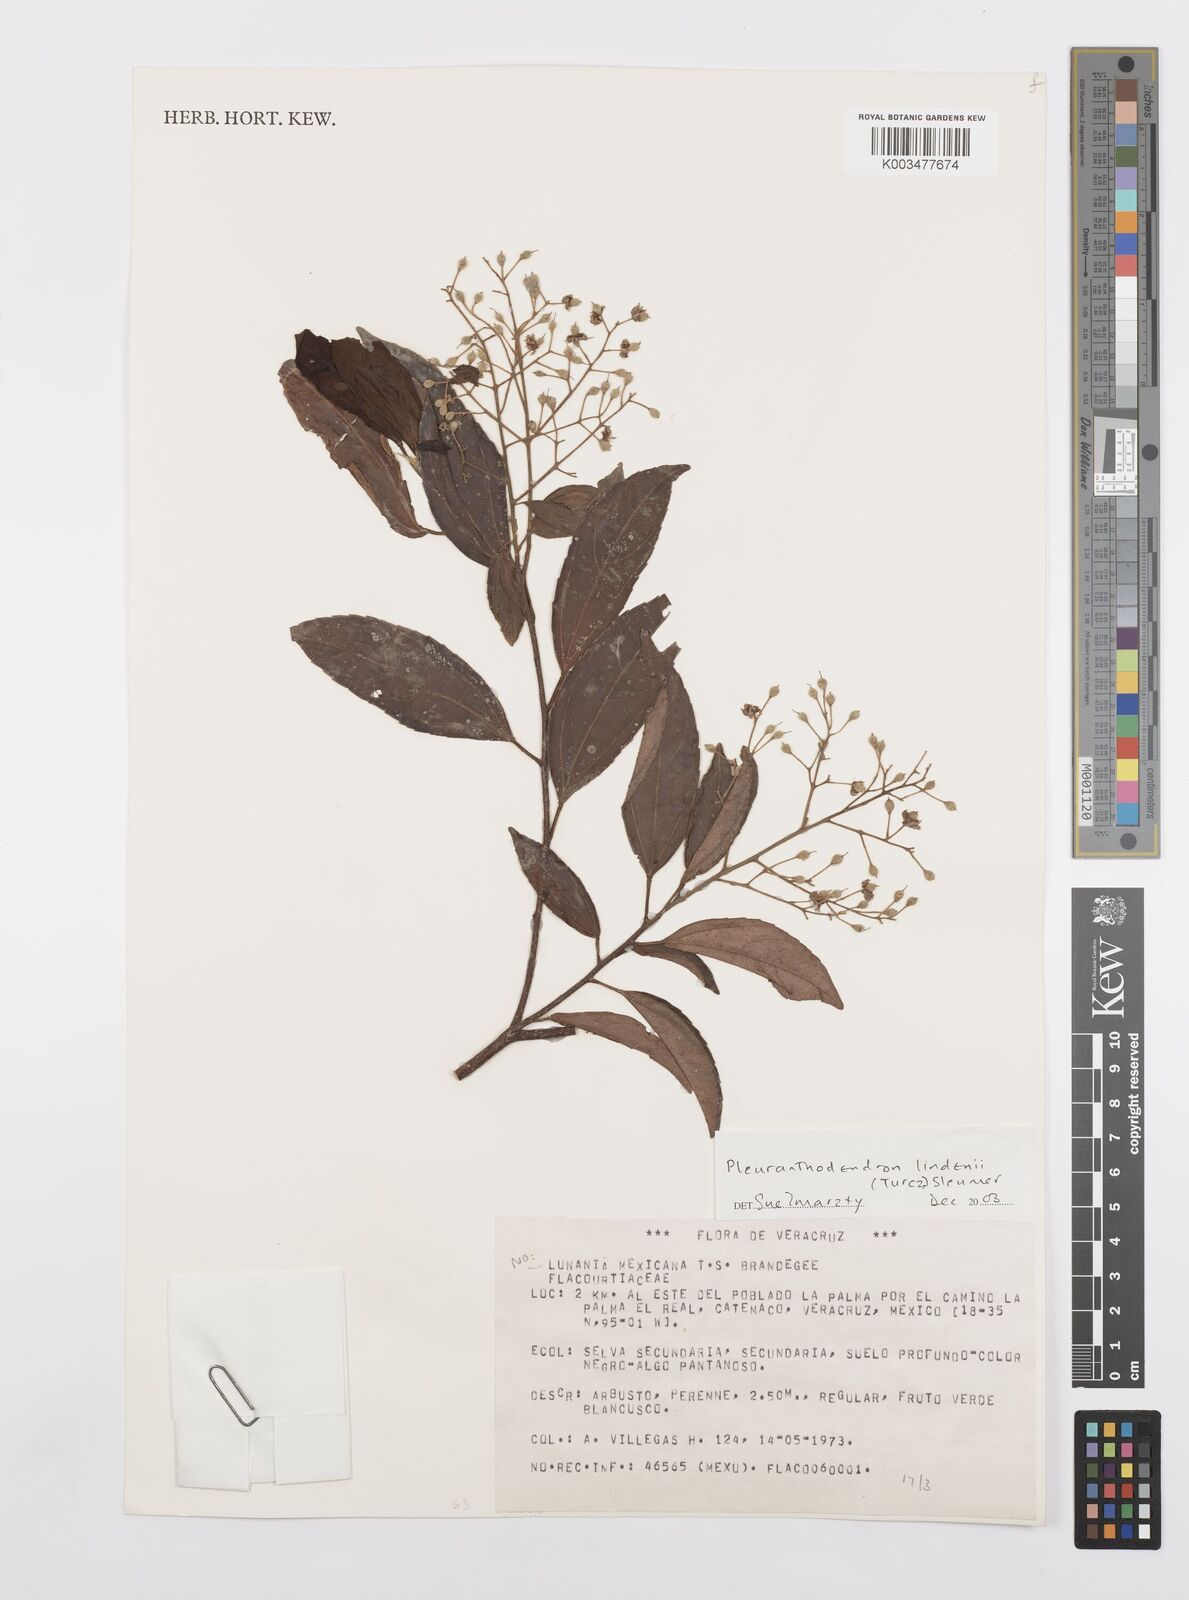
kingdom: Plantae
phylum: Tracheophyta
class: Magnoliopsida
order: Malpighiales
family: Salicaceae
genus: Pleuranthodendron
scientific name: Pleuranthodendron lindenii
